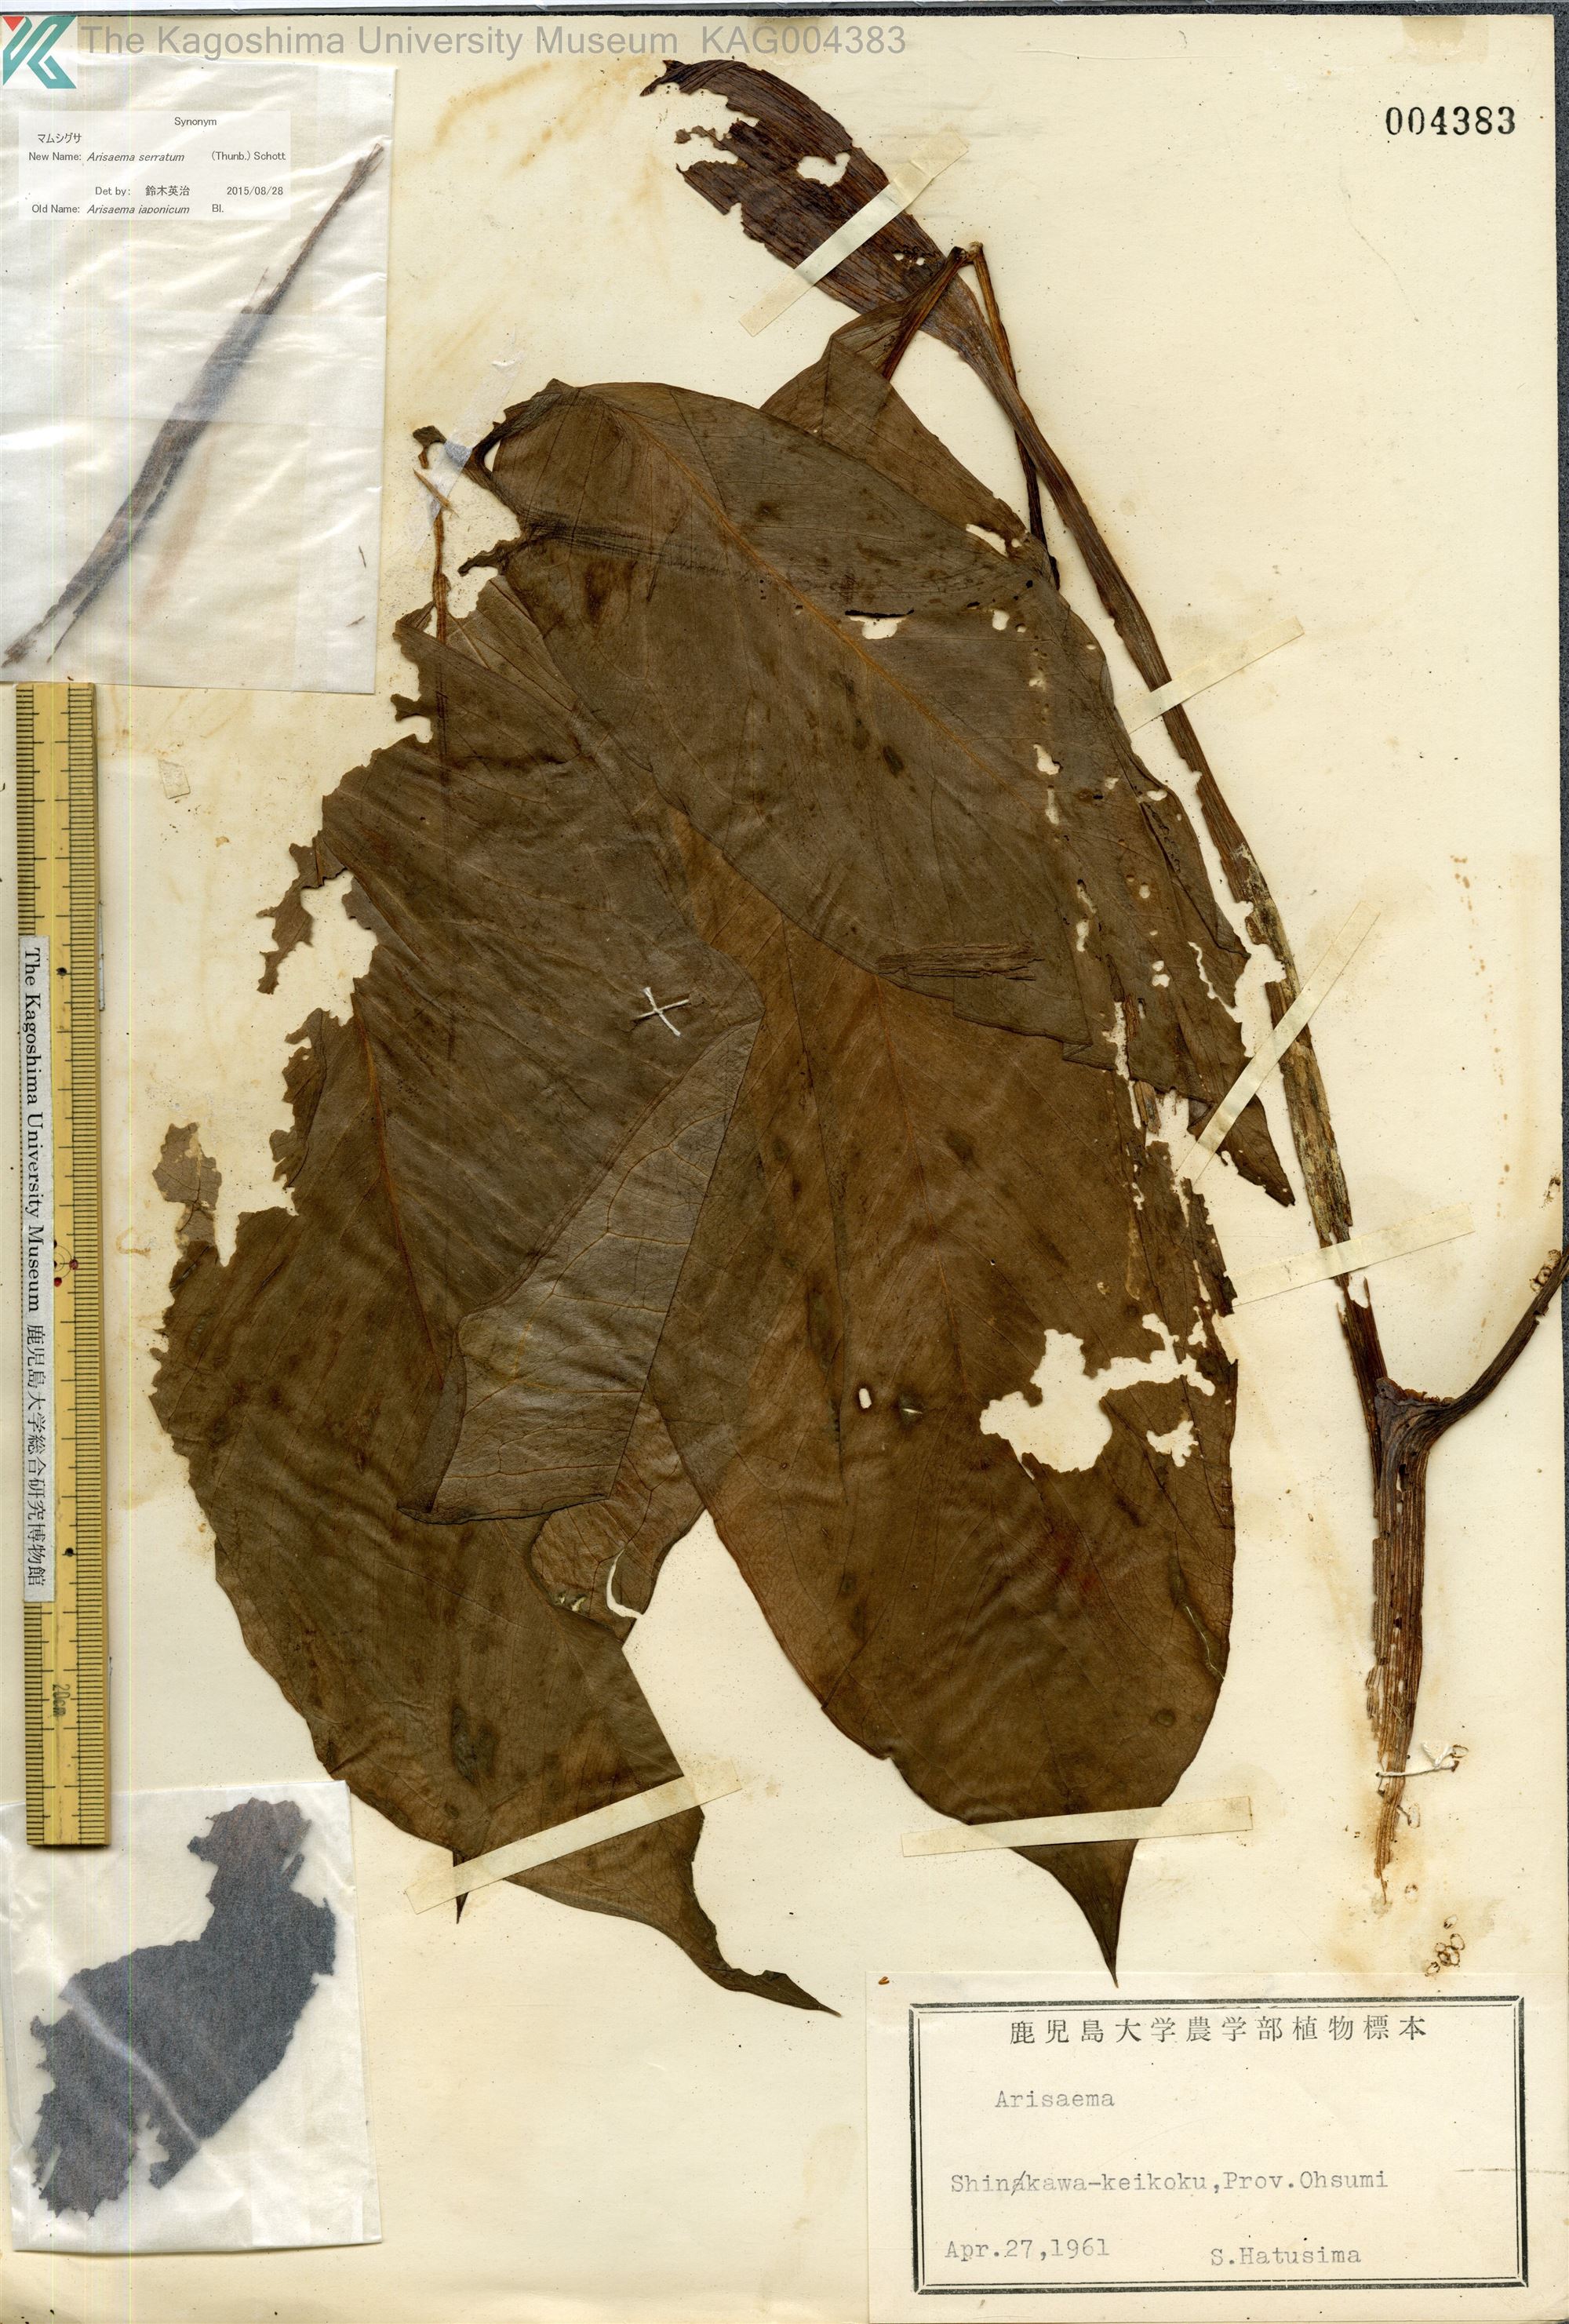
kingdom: Plantae
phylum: Tracheophyta
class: Liliopsida
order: Alismatales
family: Araceae
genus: Arisaema
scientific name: Arisaema serratum
